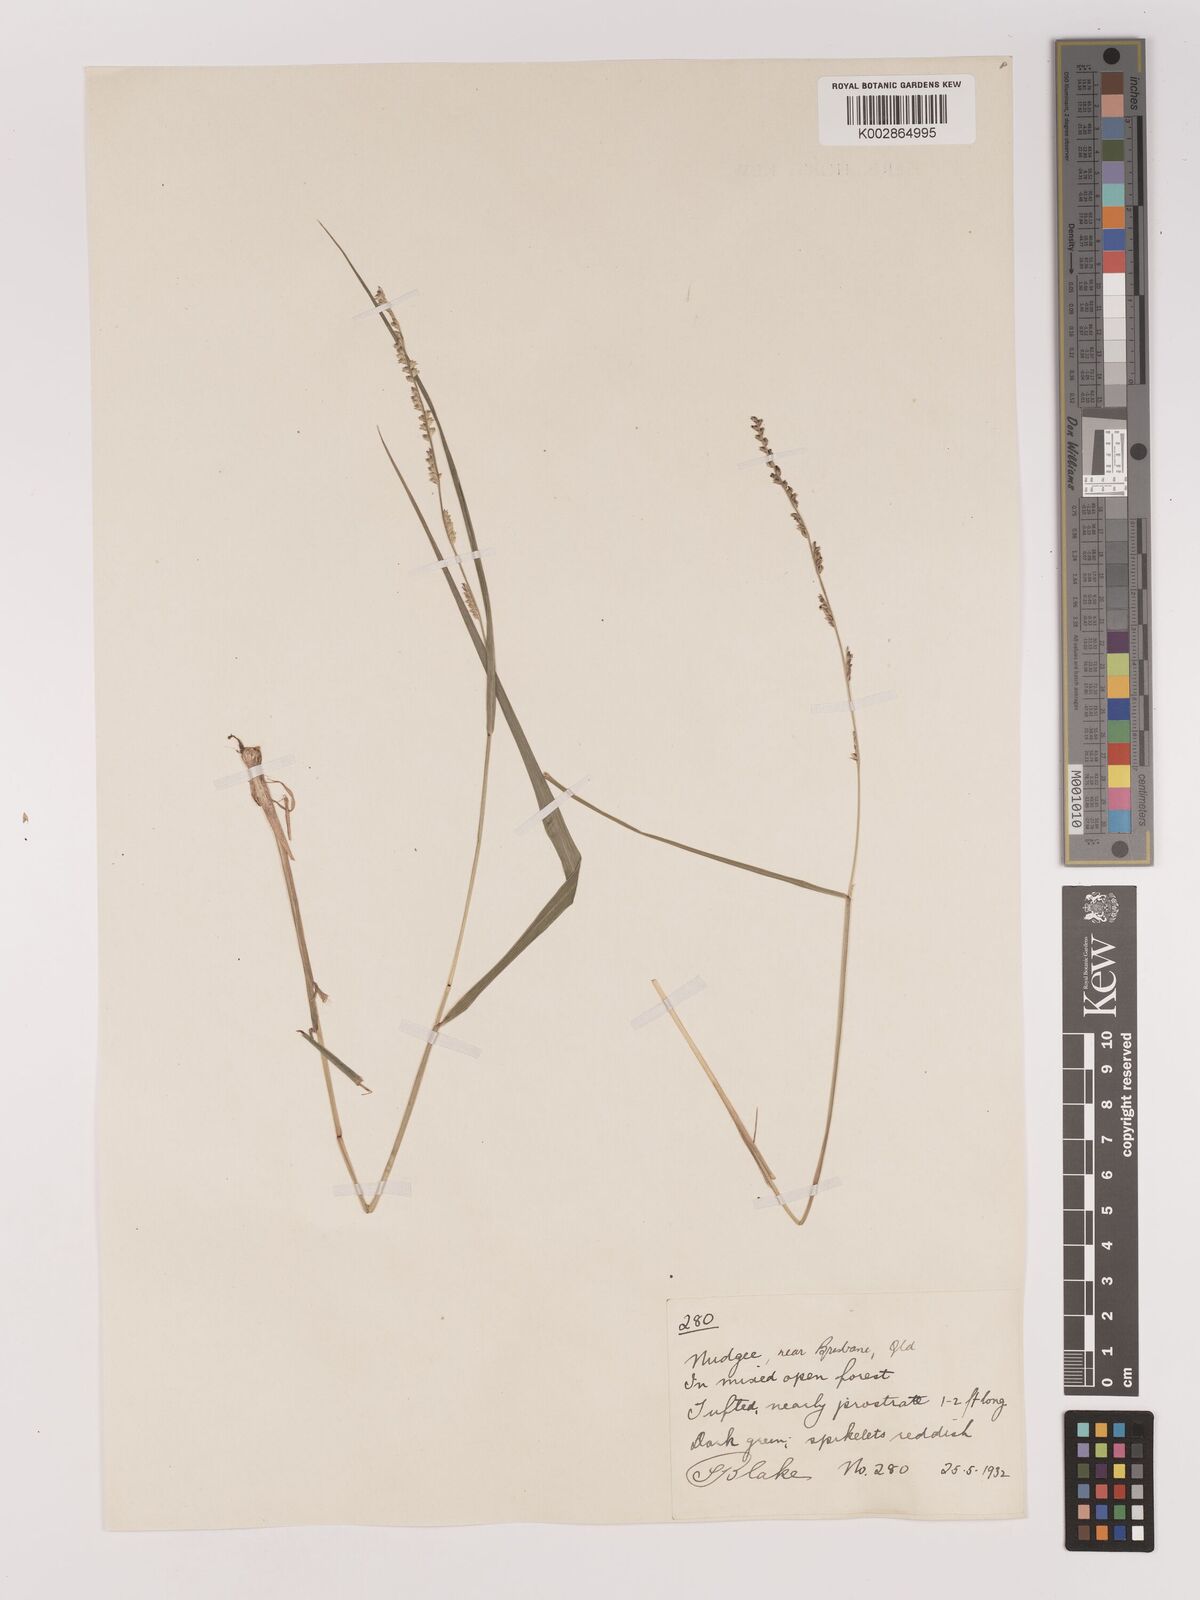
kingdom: Plantae
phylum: Tracheophyta
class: Liliopsida
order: Poales
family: Poaceae
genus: Setaria
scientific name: Setaria
